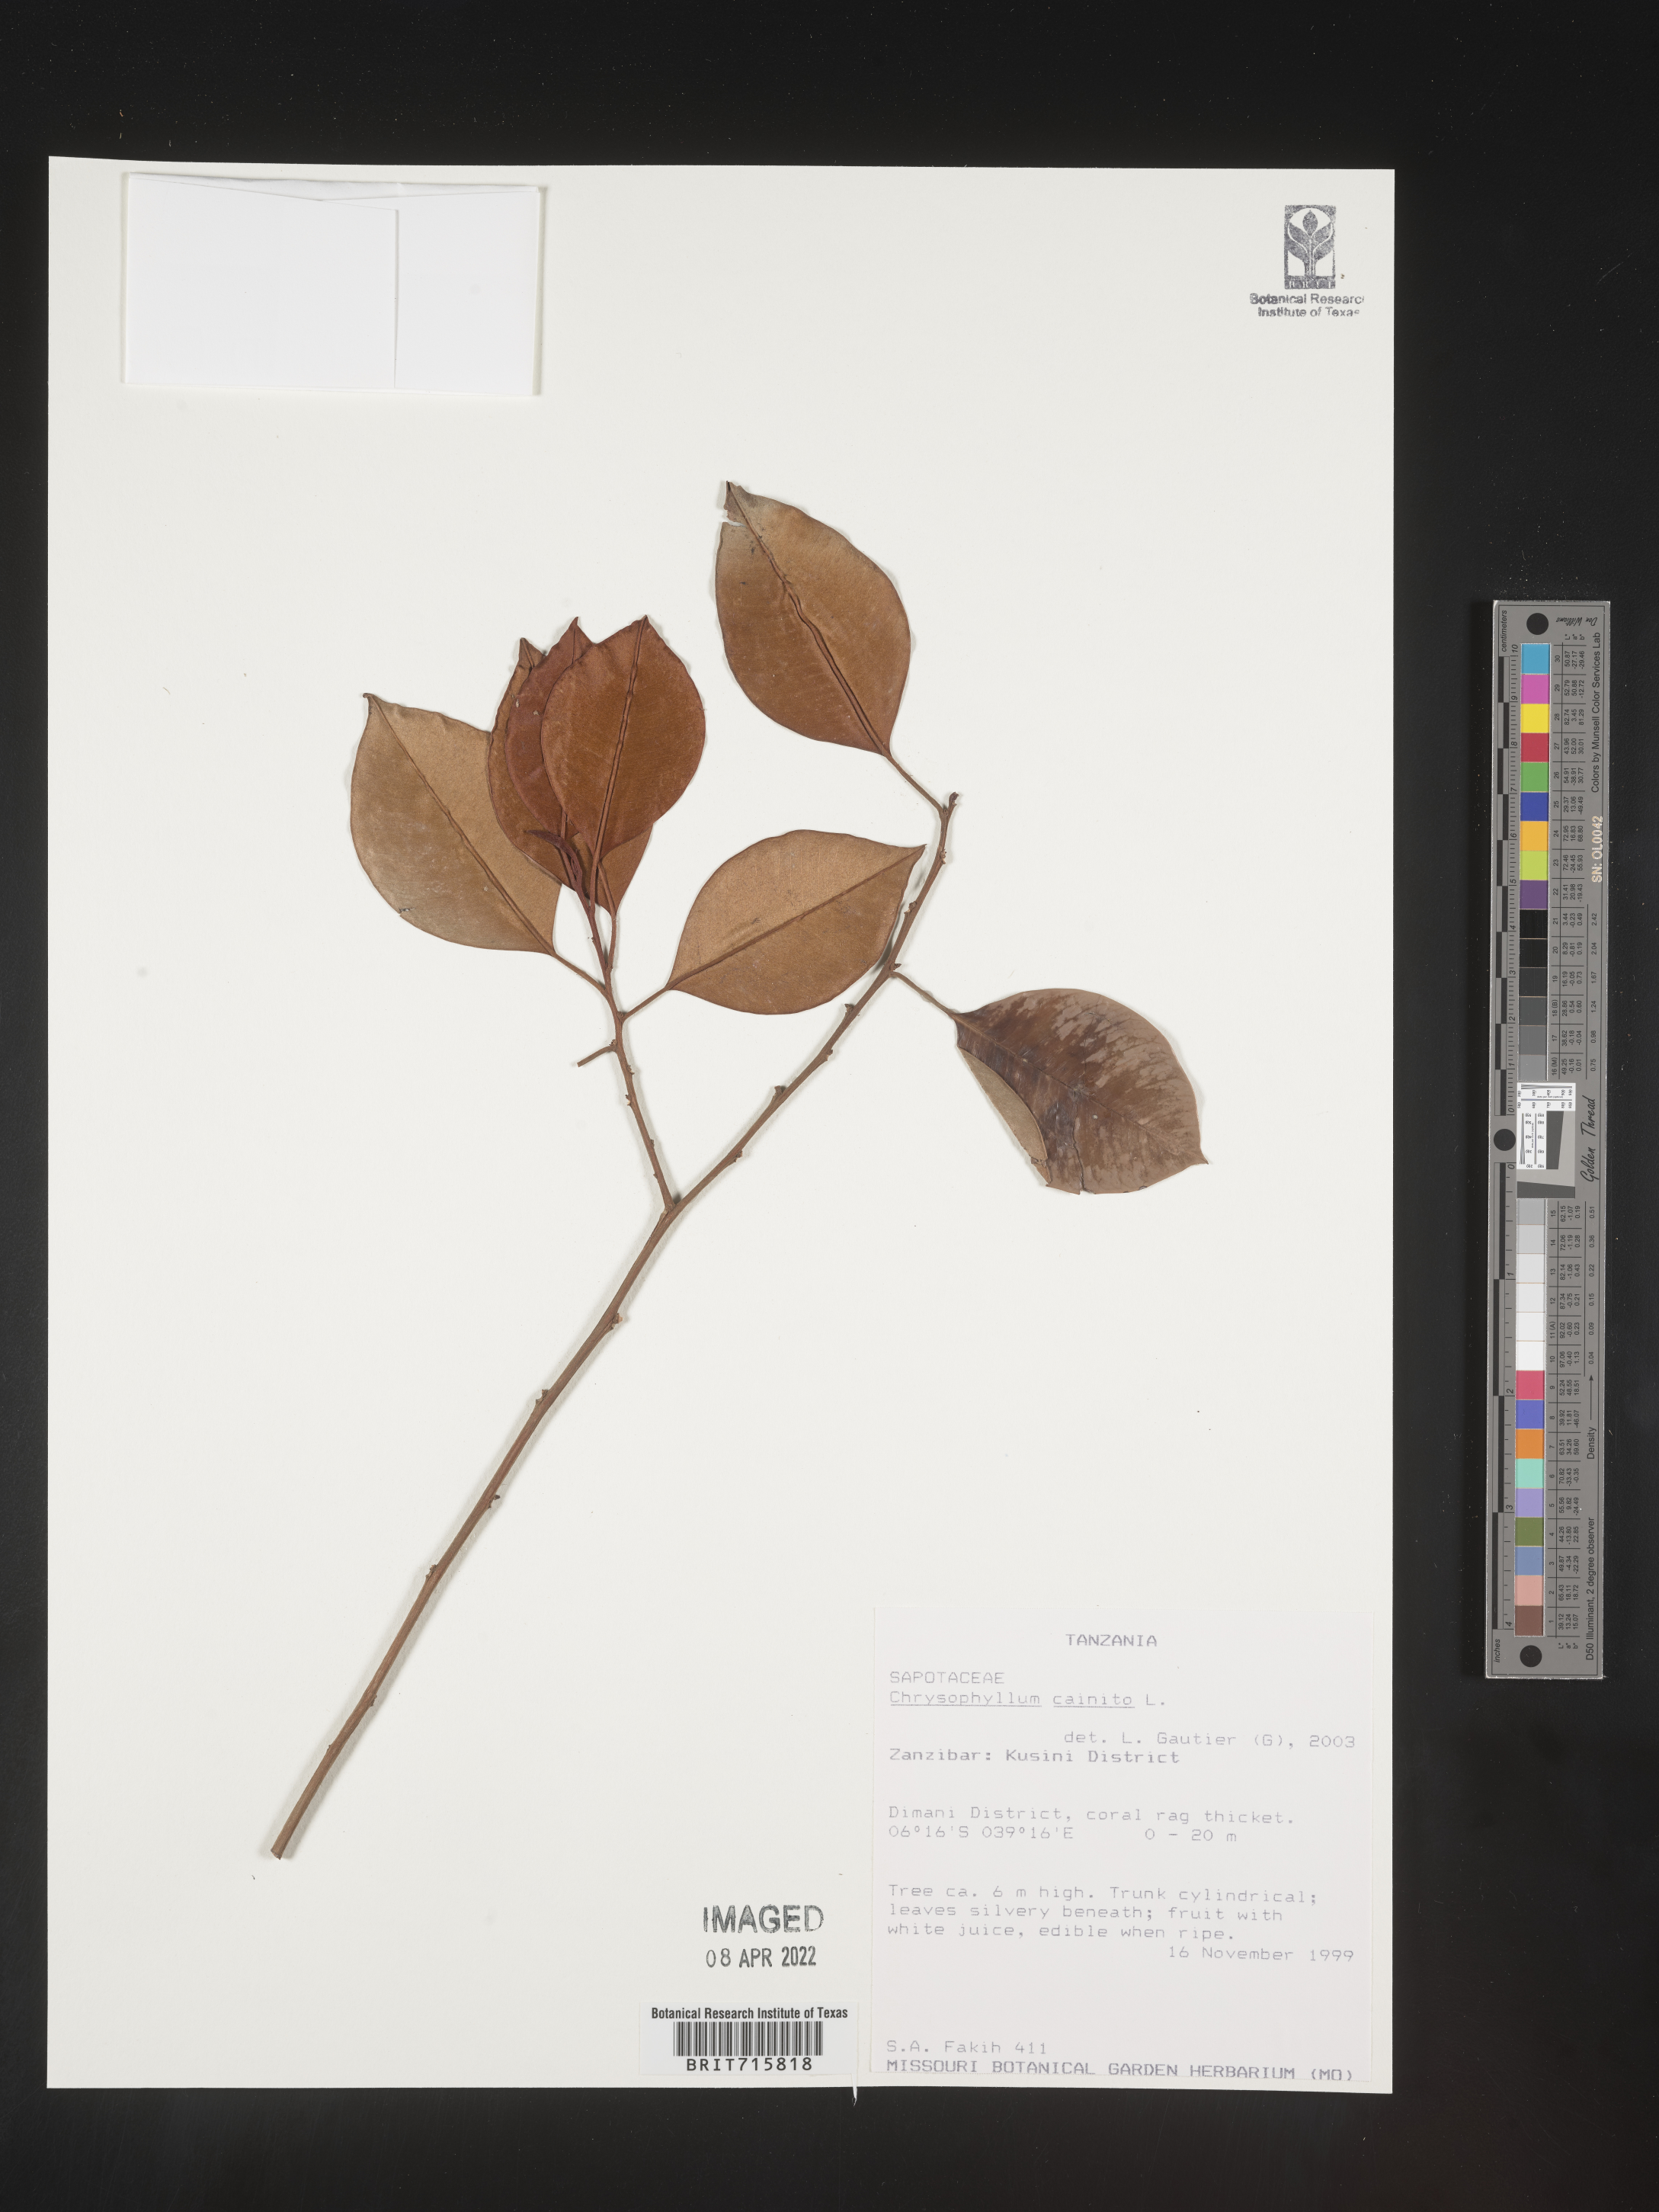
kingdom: Plantae
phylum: Tracheophyta
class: Magnoliopsida
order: Ericales
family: Sapotaceae
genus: Chrysophyllum
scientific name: Chrysophyllum
